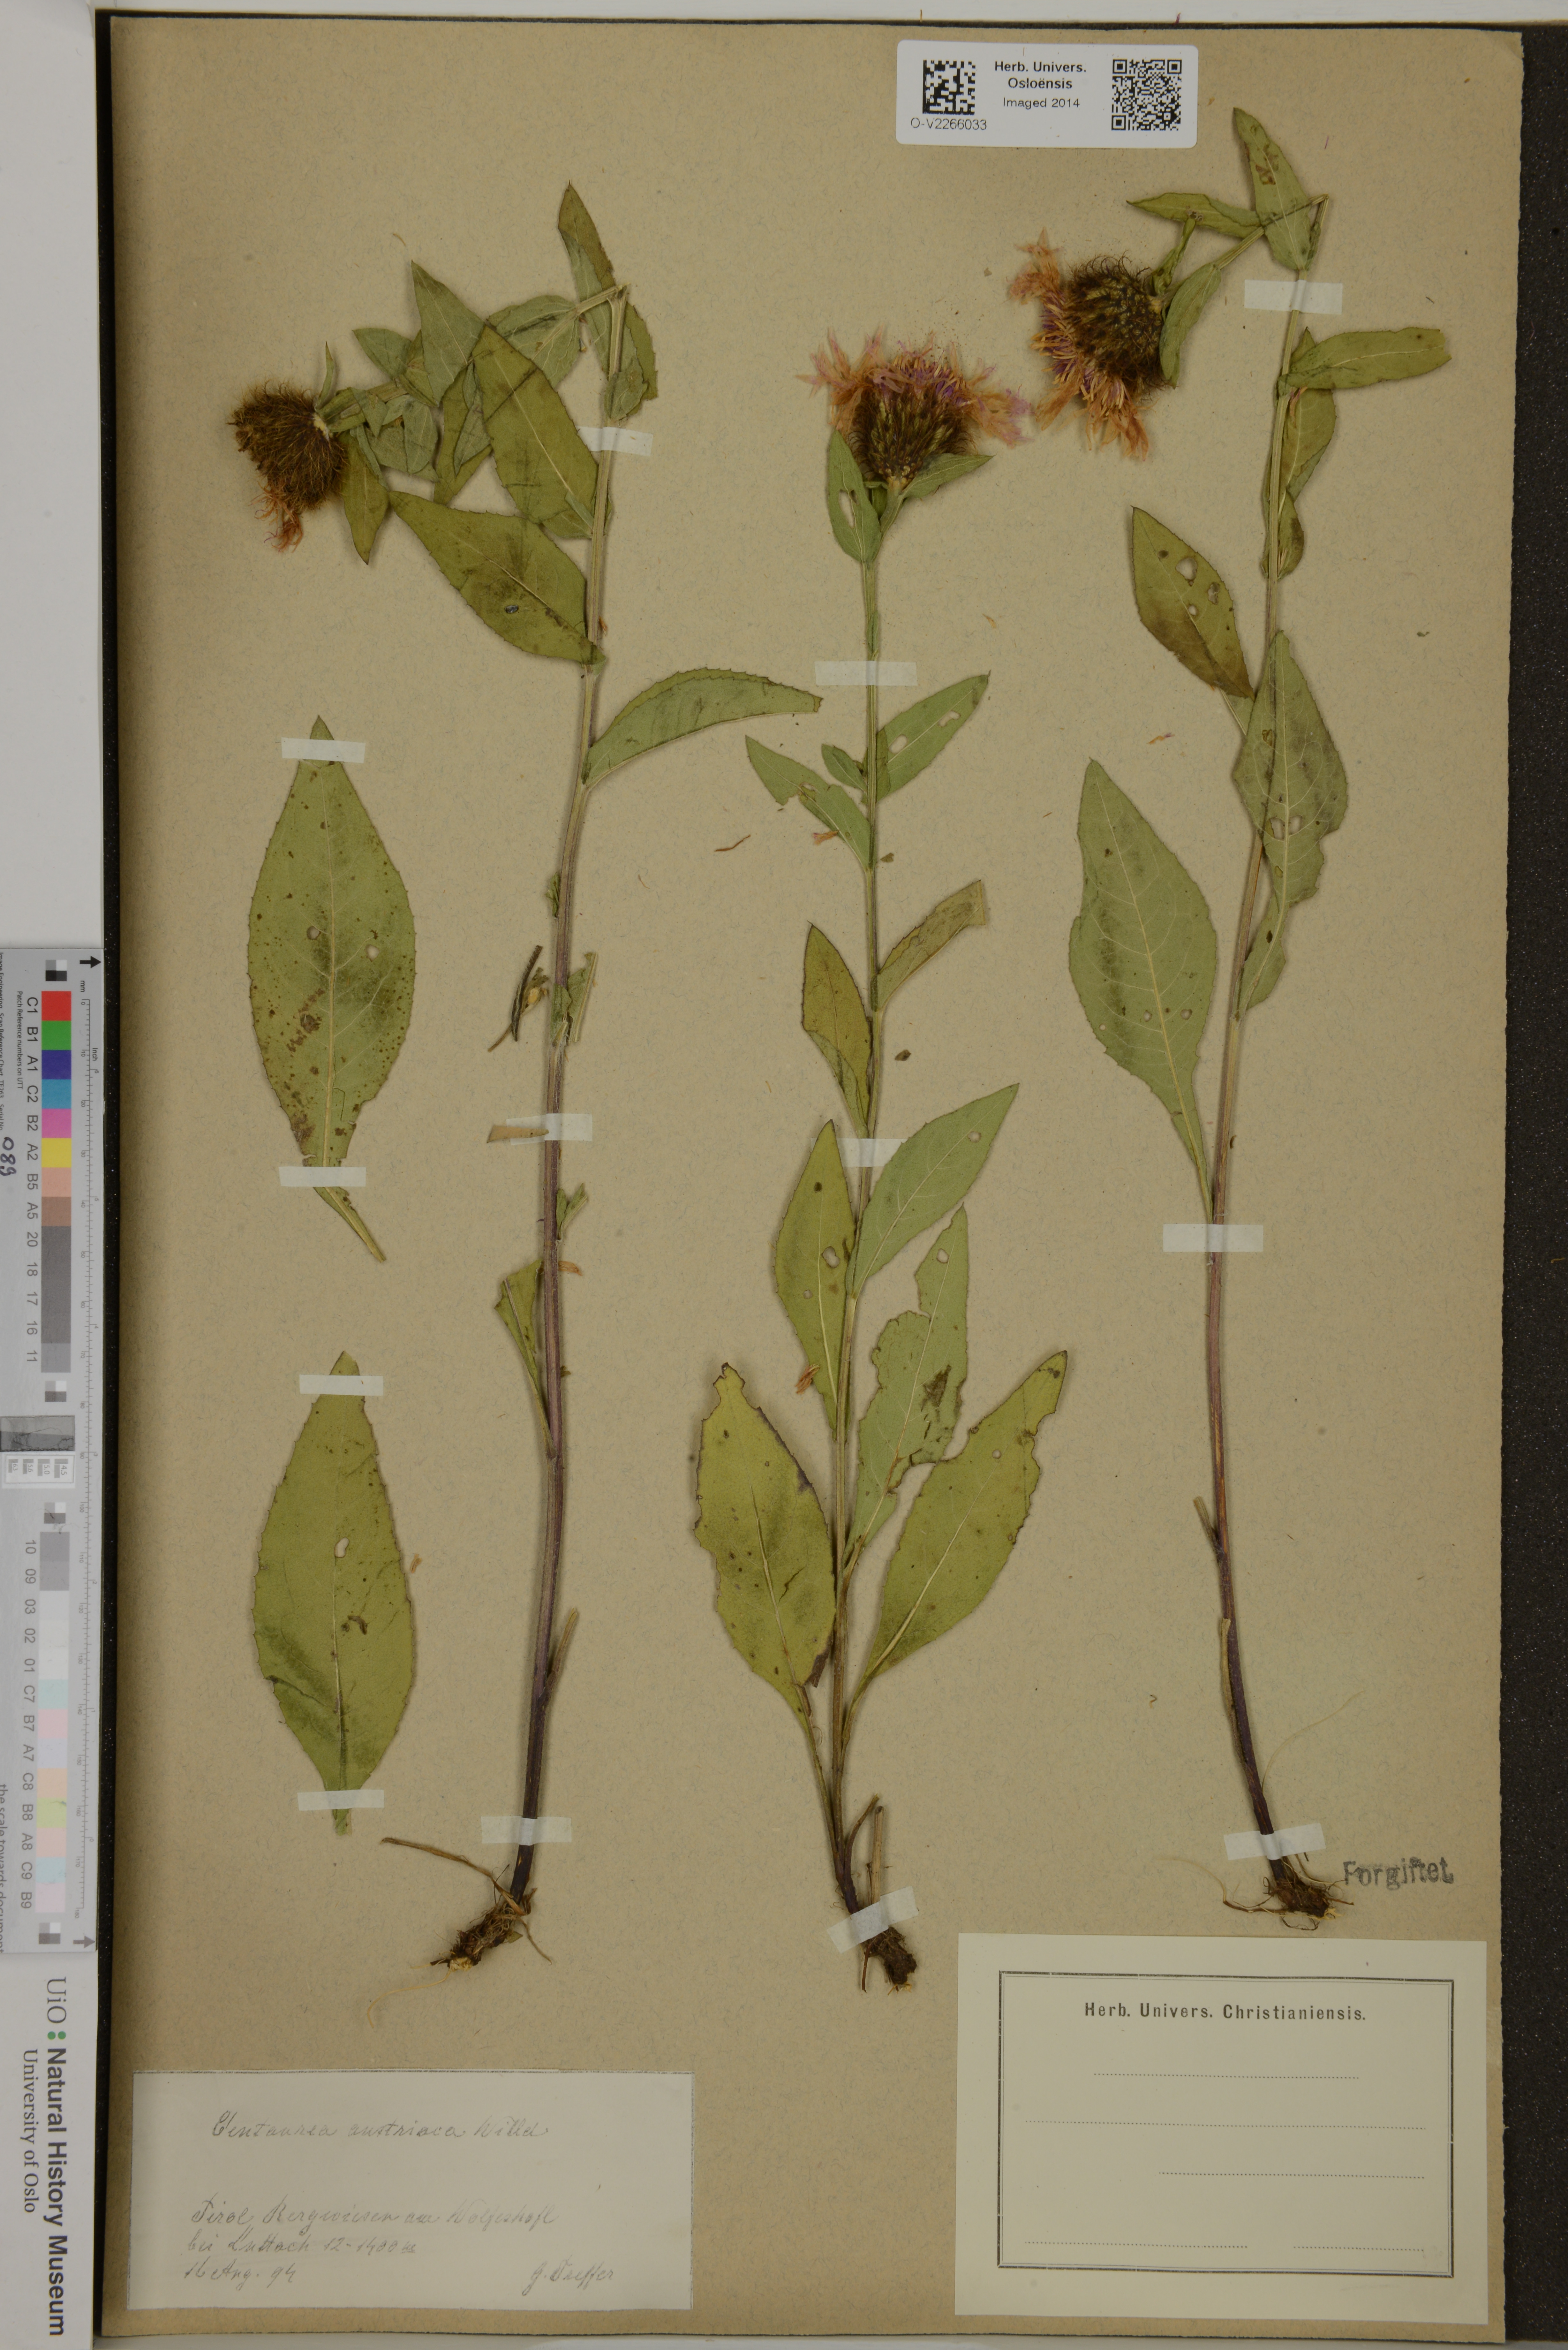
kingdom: Plantae
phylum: Tracheophyta
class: Magnoliopsida
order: Asterales
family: Asteraceae
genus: Centaurea
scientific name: Centaurea phrygia
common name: Wig knapweed
